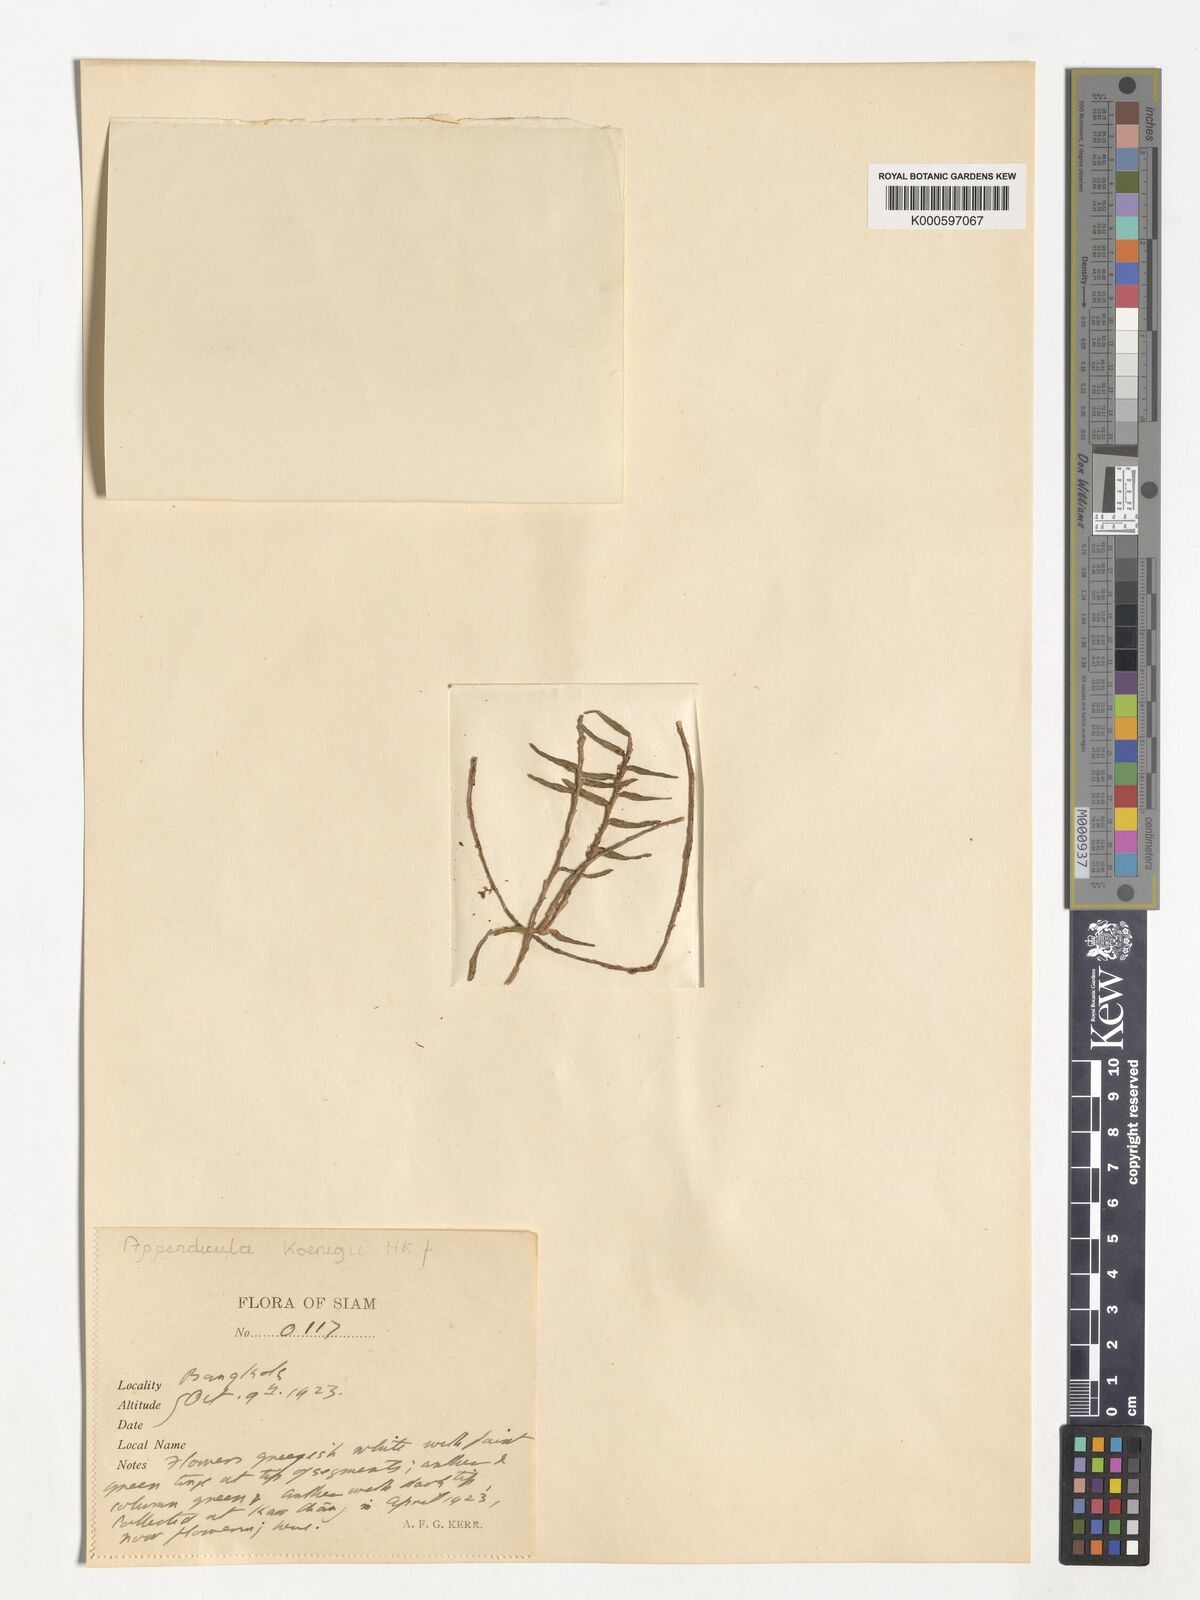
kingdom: Plantae
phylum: Tracheophyta
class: Liliopsida
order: Asparagales
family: Orchidaceae
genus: Appendicula
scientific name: Appendicula
